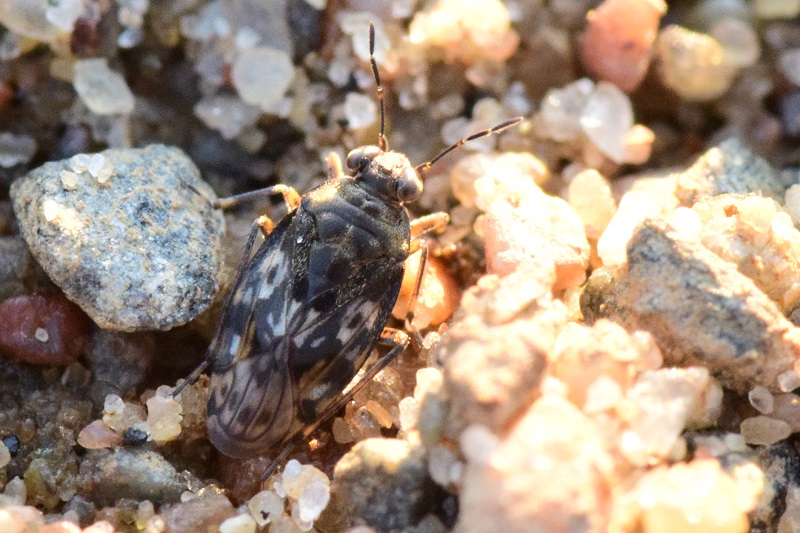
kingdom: Animalia
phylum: Arthropoda
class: Insecta
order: Hemiptera
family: Saldidae
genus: Chartoscirta
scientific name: Chartoscirta cincta
